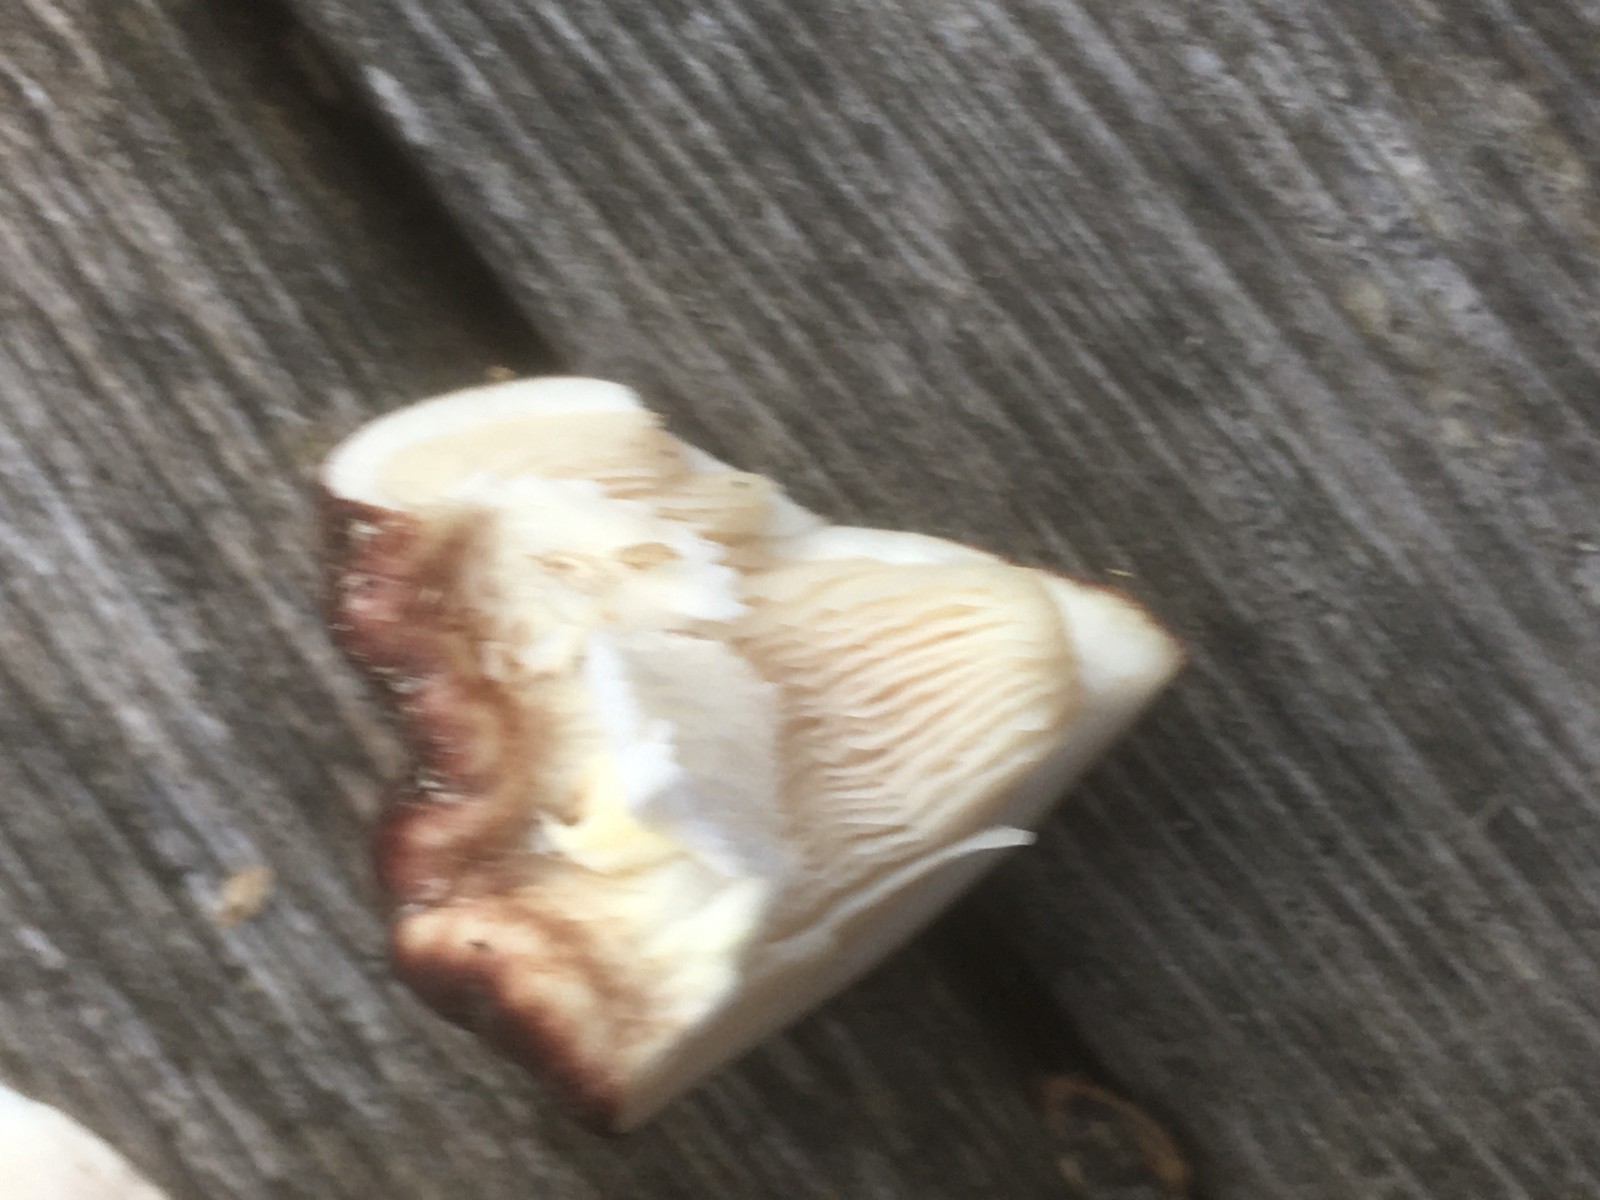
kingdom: Fungi
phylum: Basidiomycota
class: Agaricomycetes
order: Agaricales
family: Strophariaceae
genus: Stropharia
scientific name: Stropharia rugosoannulata
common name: rødbrun bredblad
